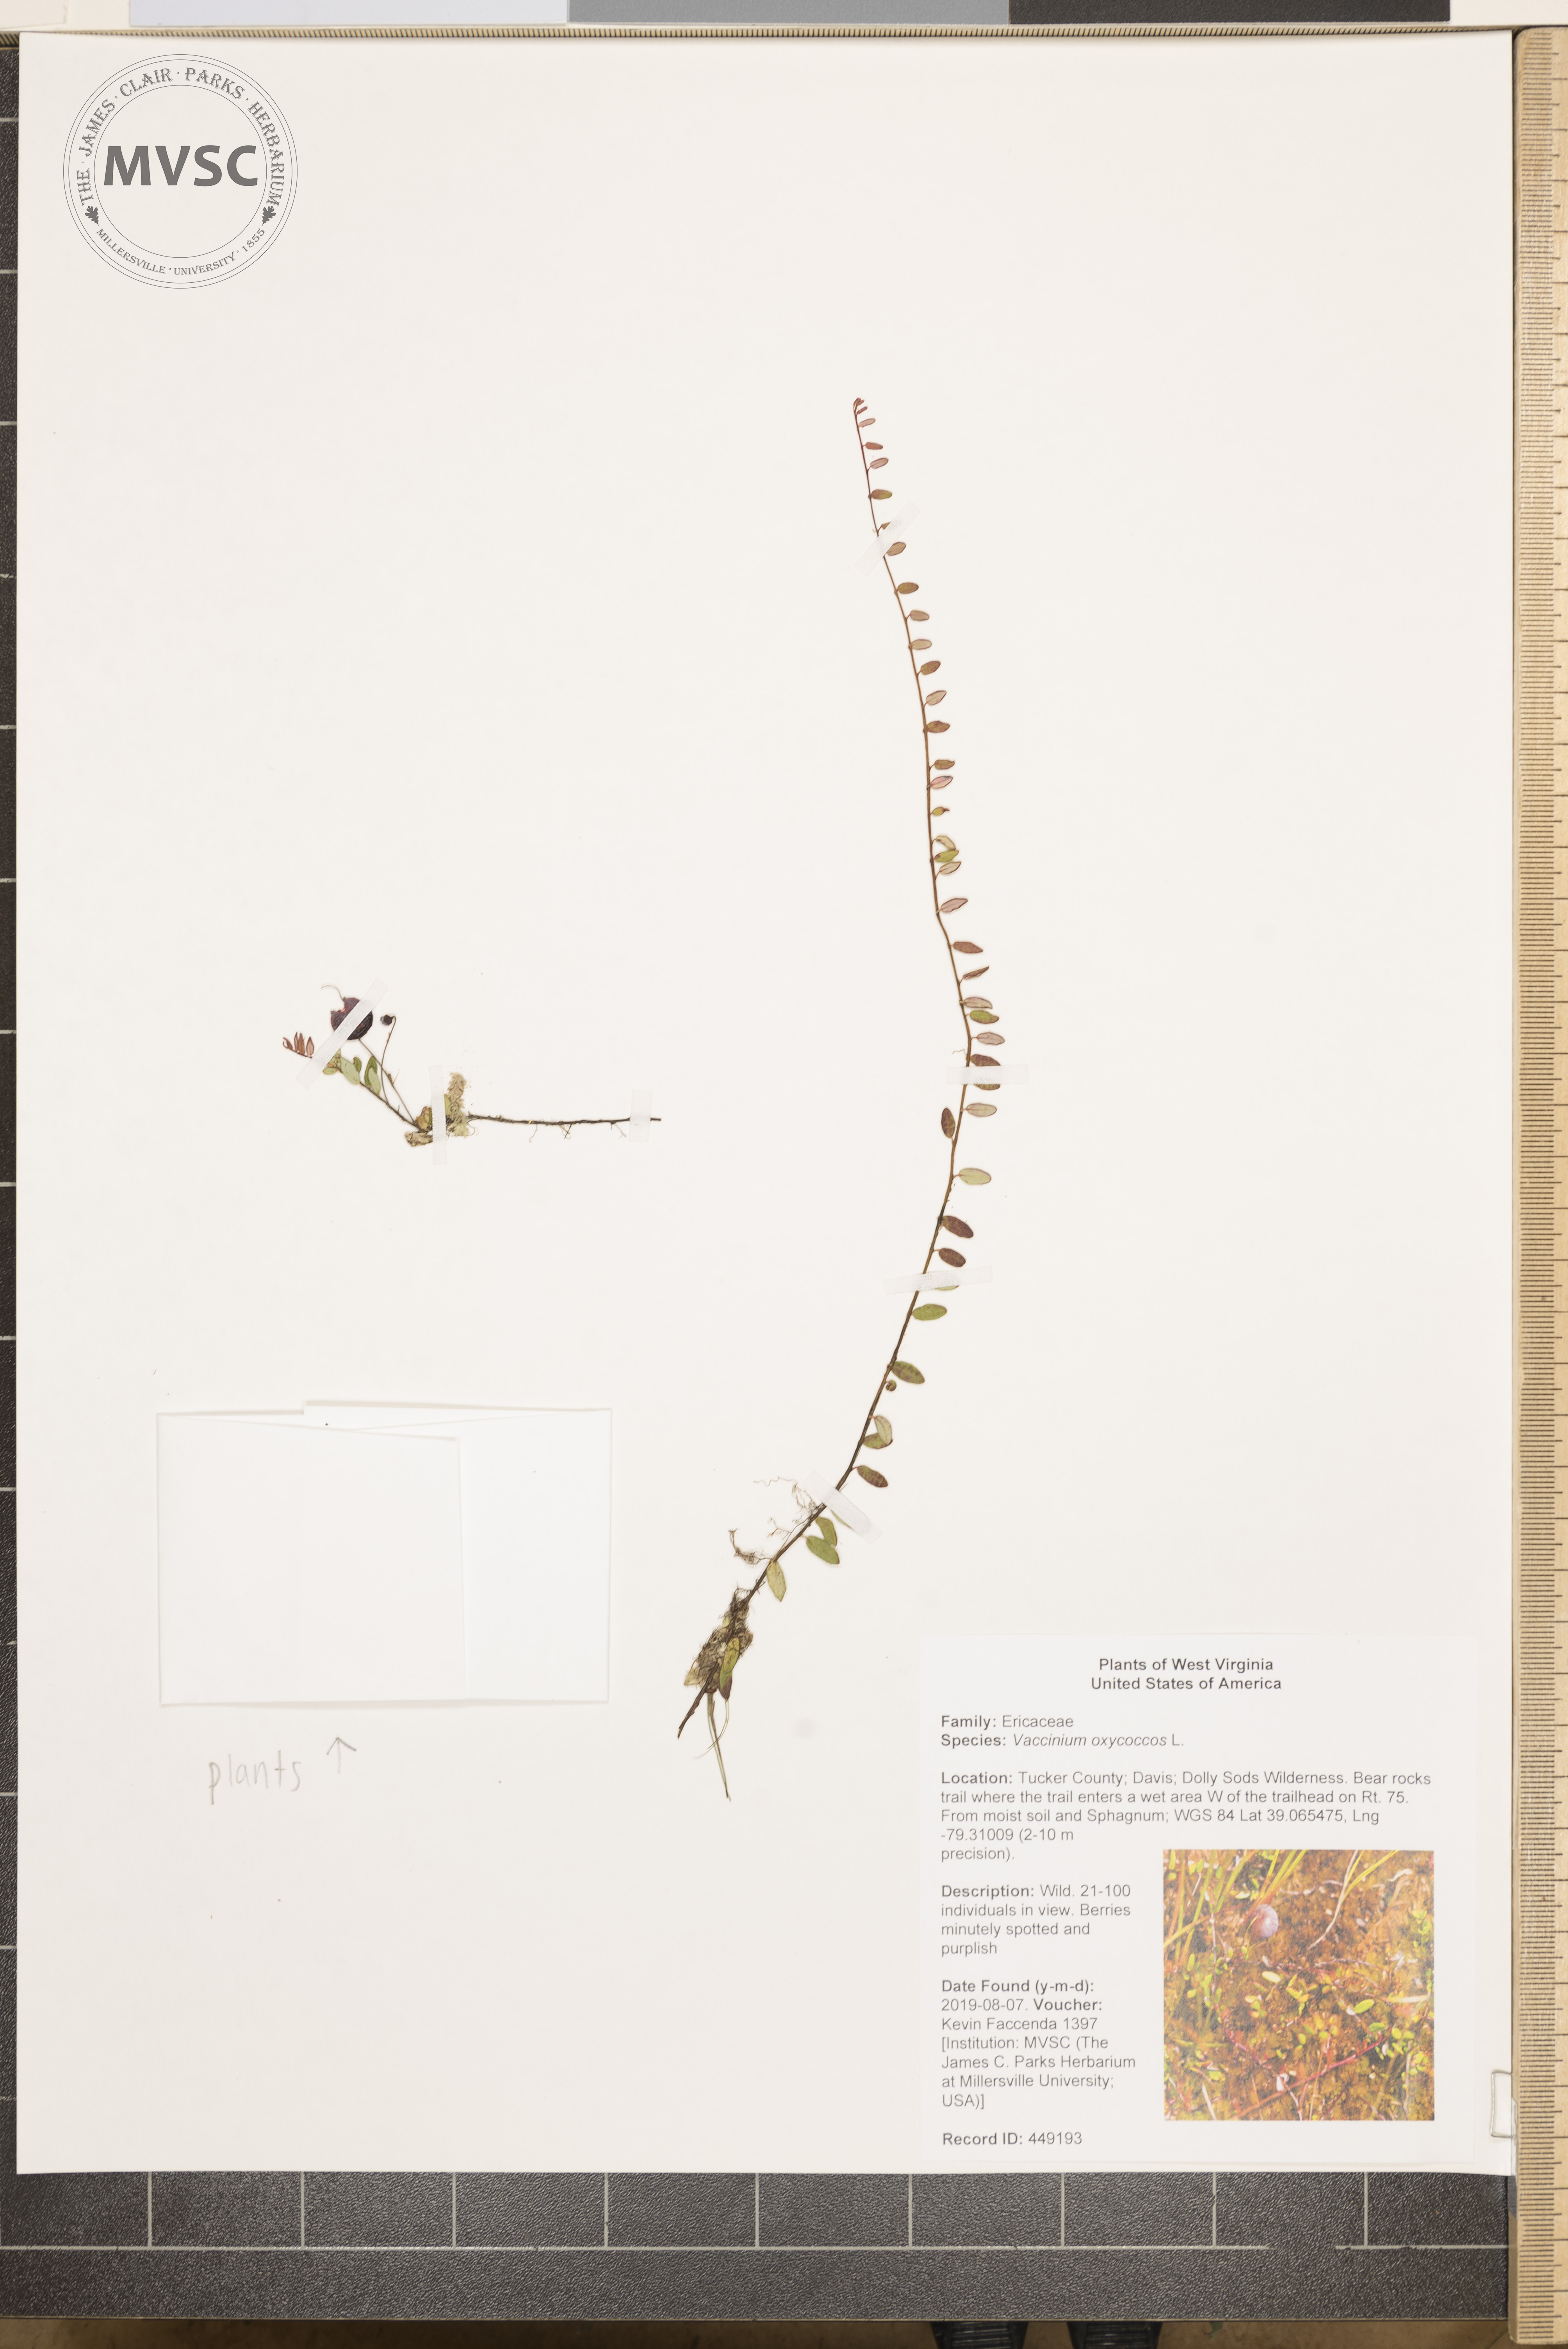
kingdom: Plantae
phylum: Tracheophyta
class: Magnoliopsida
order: Ericales
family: Ericaceae
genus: Vaccinium
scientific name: Vaccinium oxycoccos
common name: Cranberry
